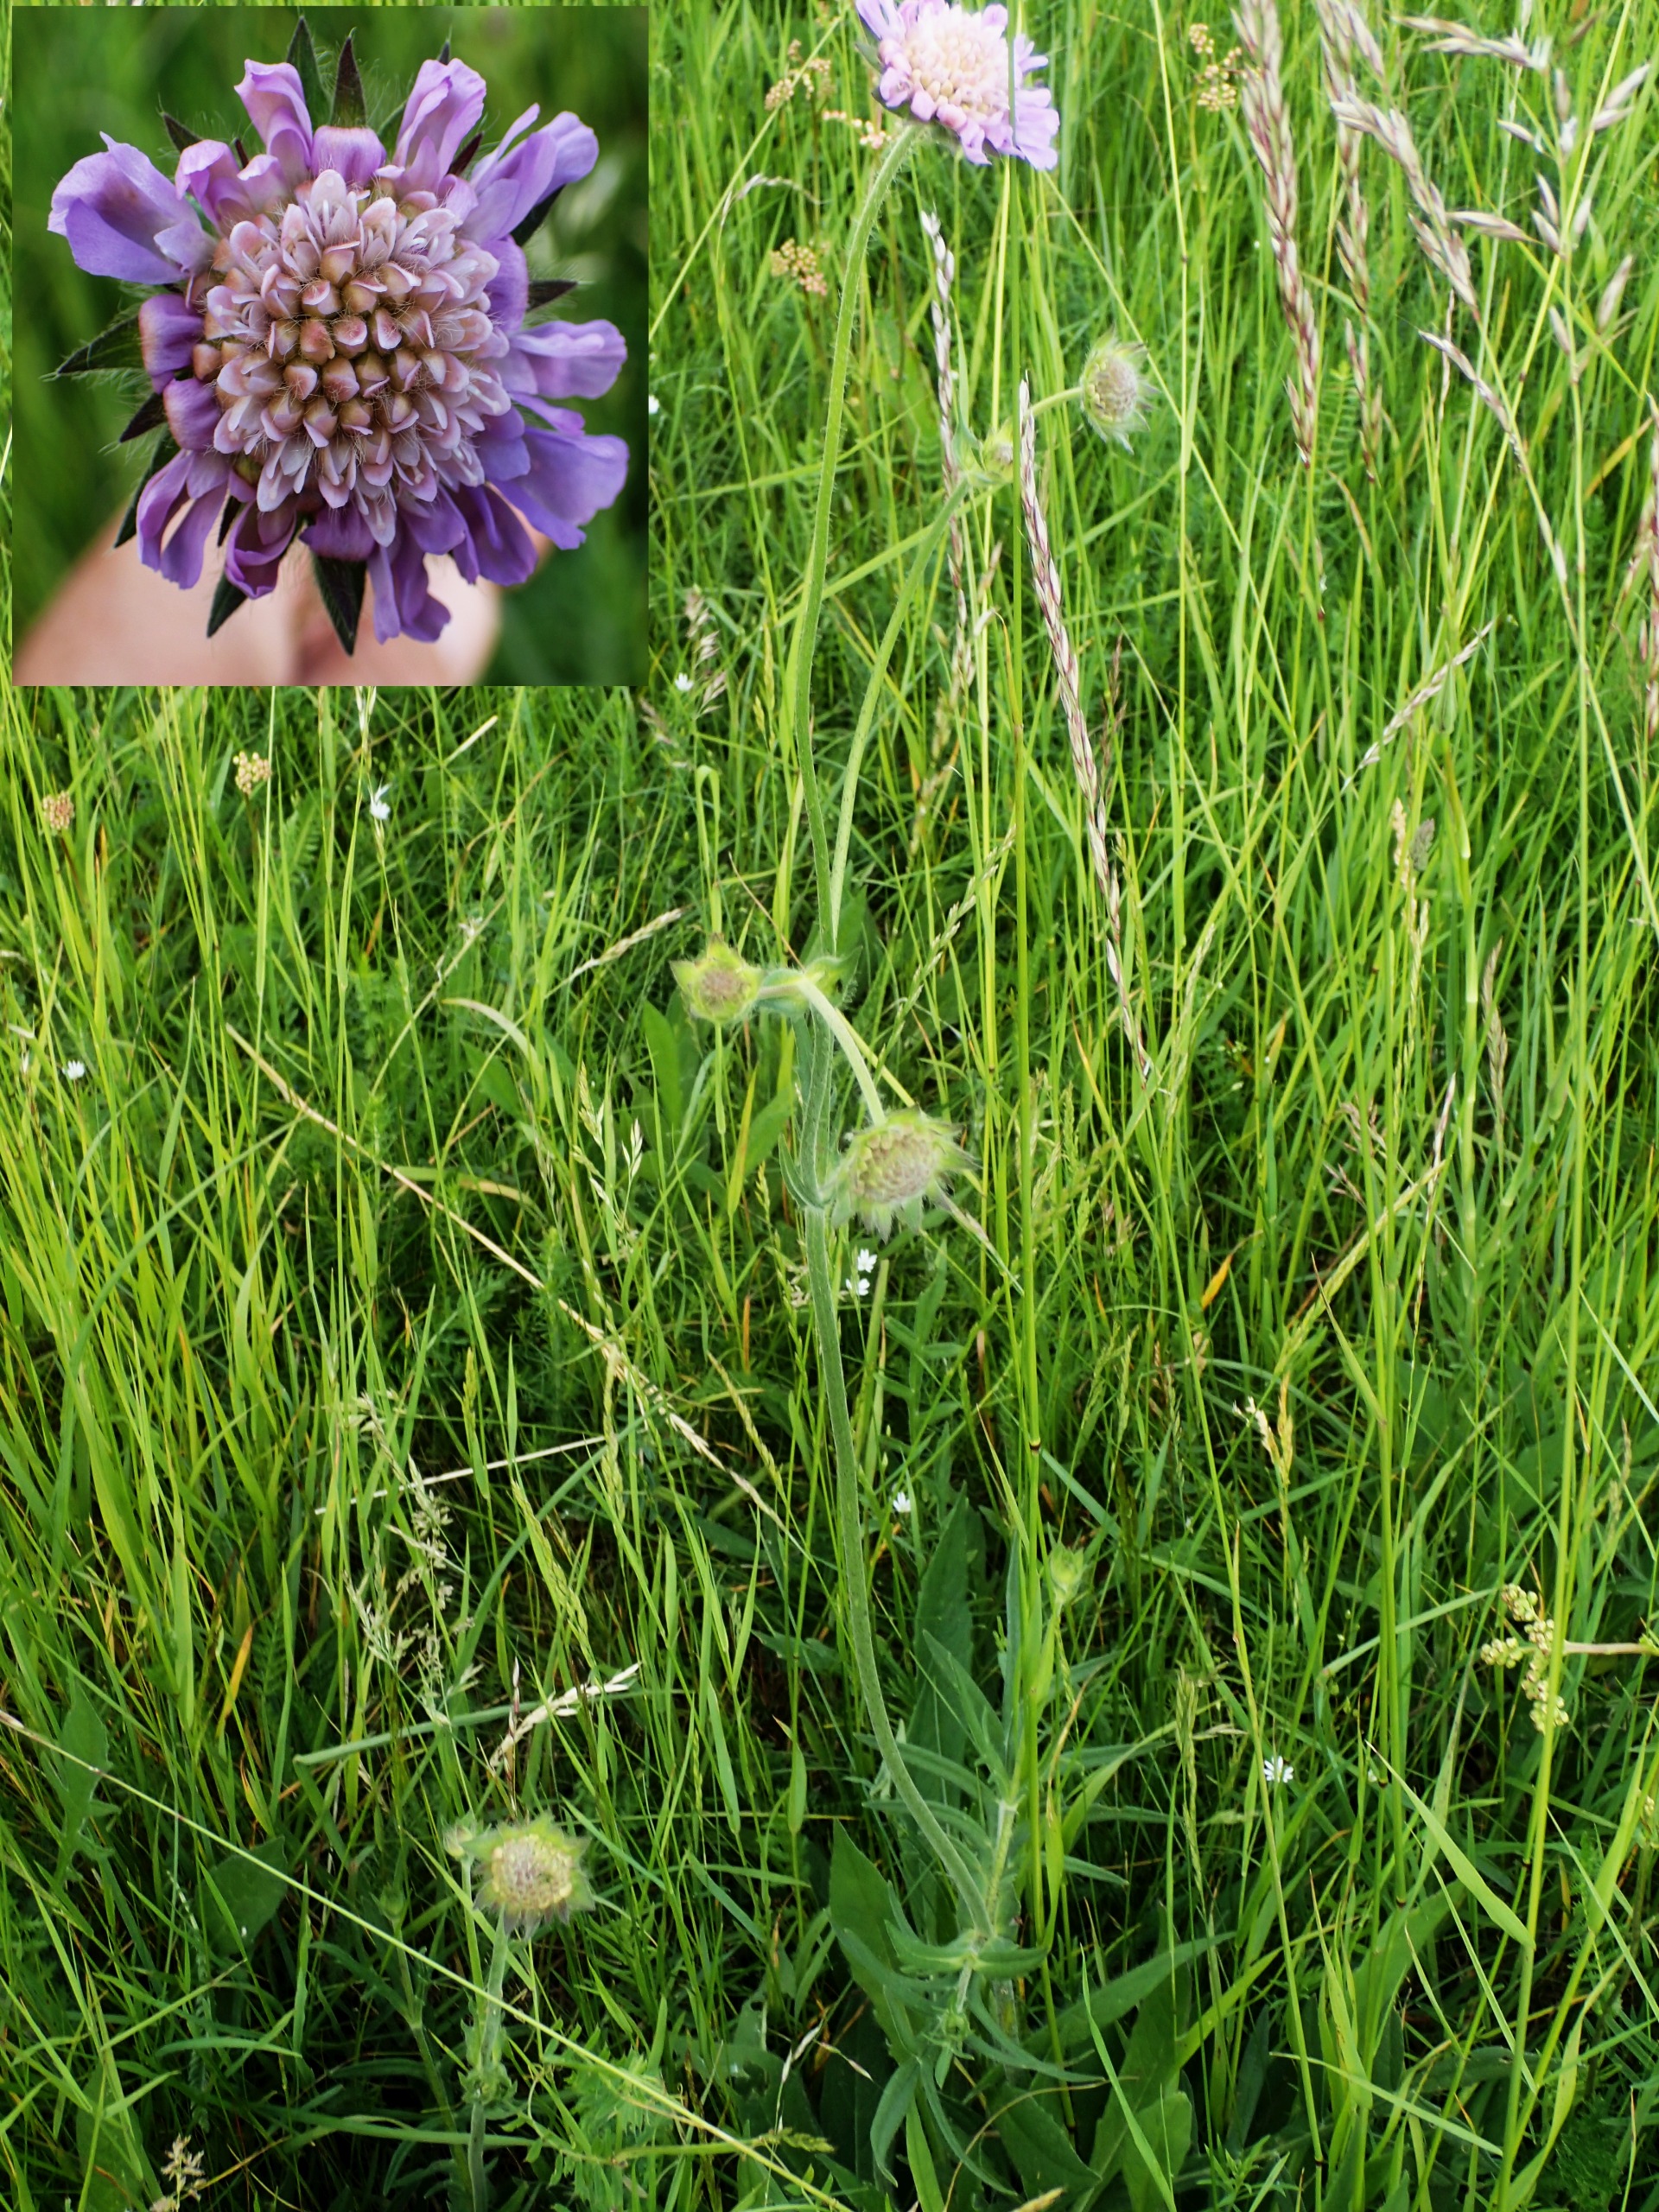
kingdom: Plantae
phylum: Tracheophyta
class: Magnoliopsida
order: Dipsacales
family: Caprifoliaceae
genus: Knautia
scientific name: Knautia arvensis
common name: Blåhat
